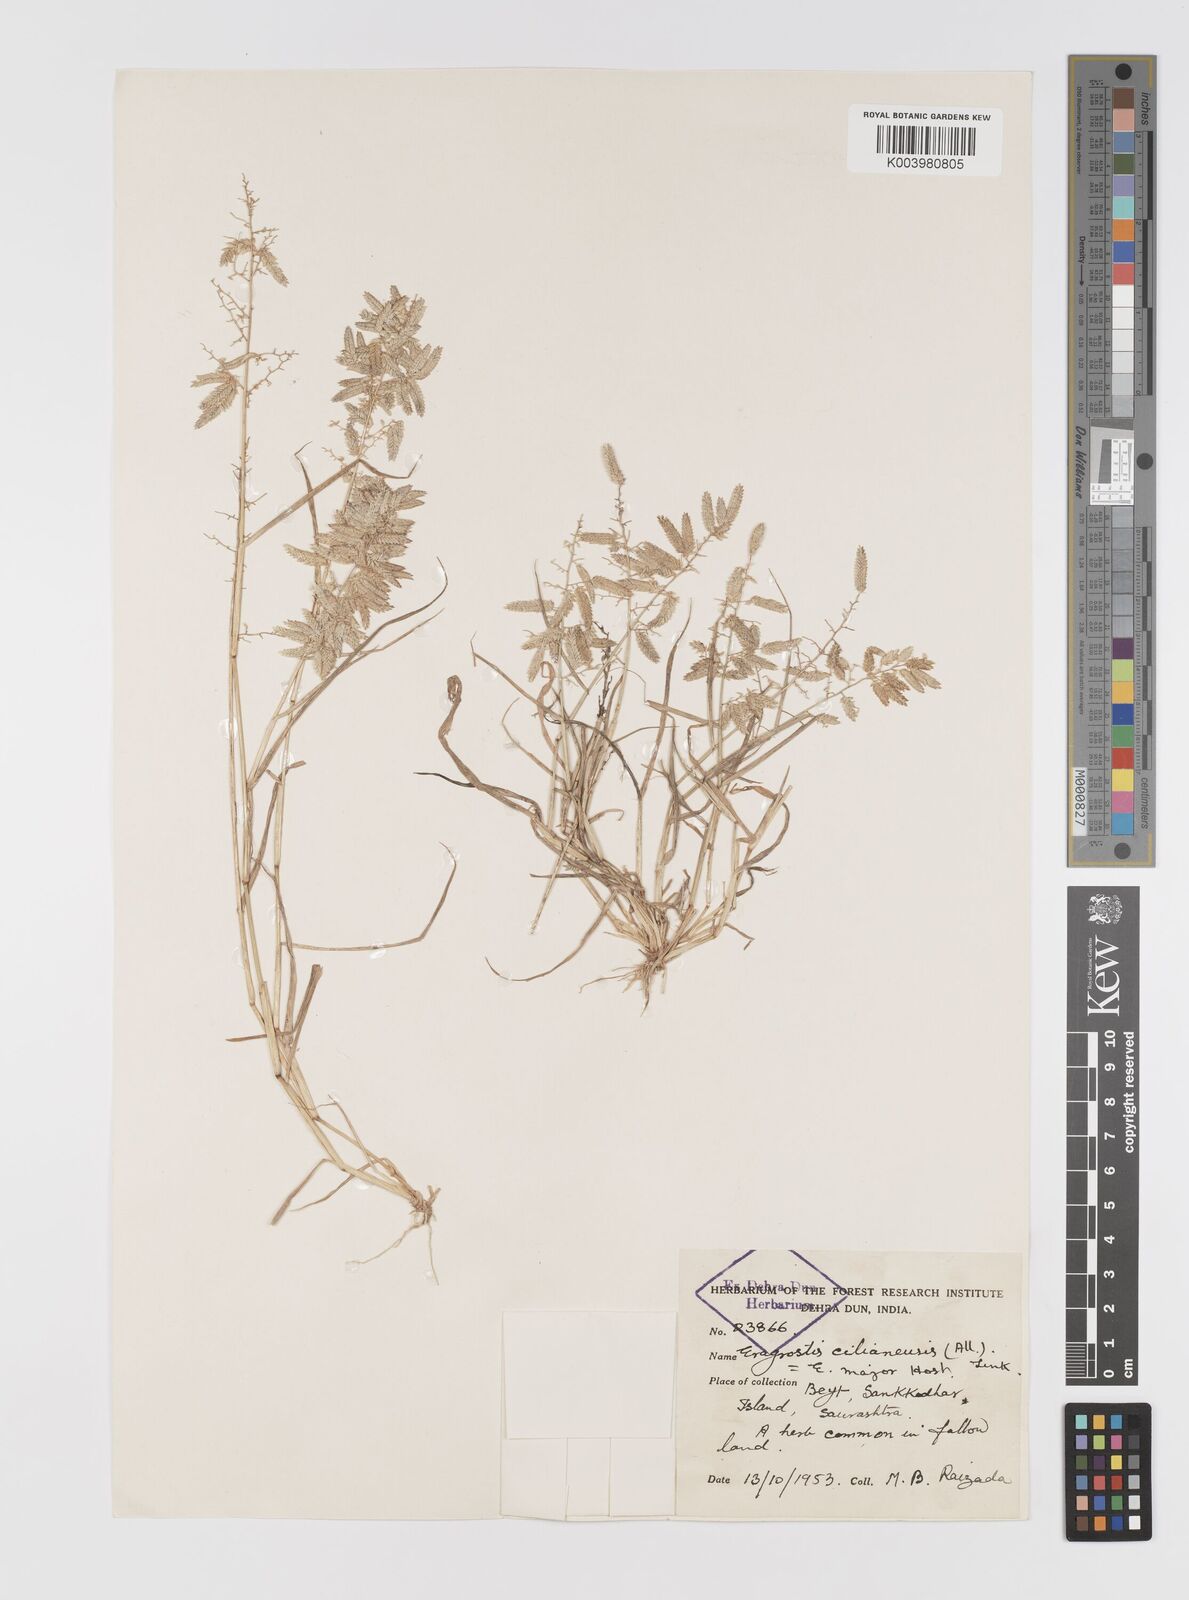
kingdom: Plantae
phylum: Tracheophyta
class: Liliopsida
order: Poales
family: Poaceae
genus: Eragrostis
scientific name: Eragrostis cilianensis
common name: Stinkgrass
